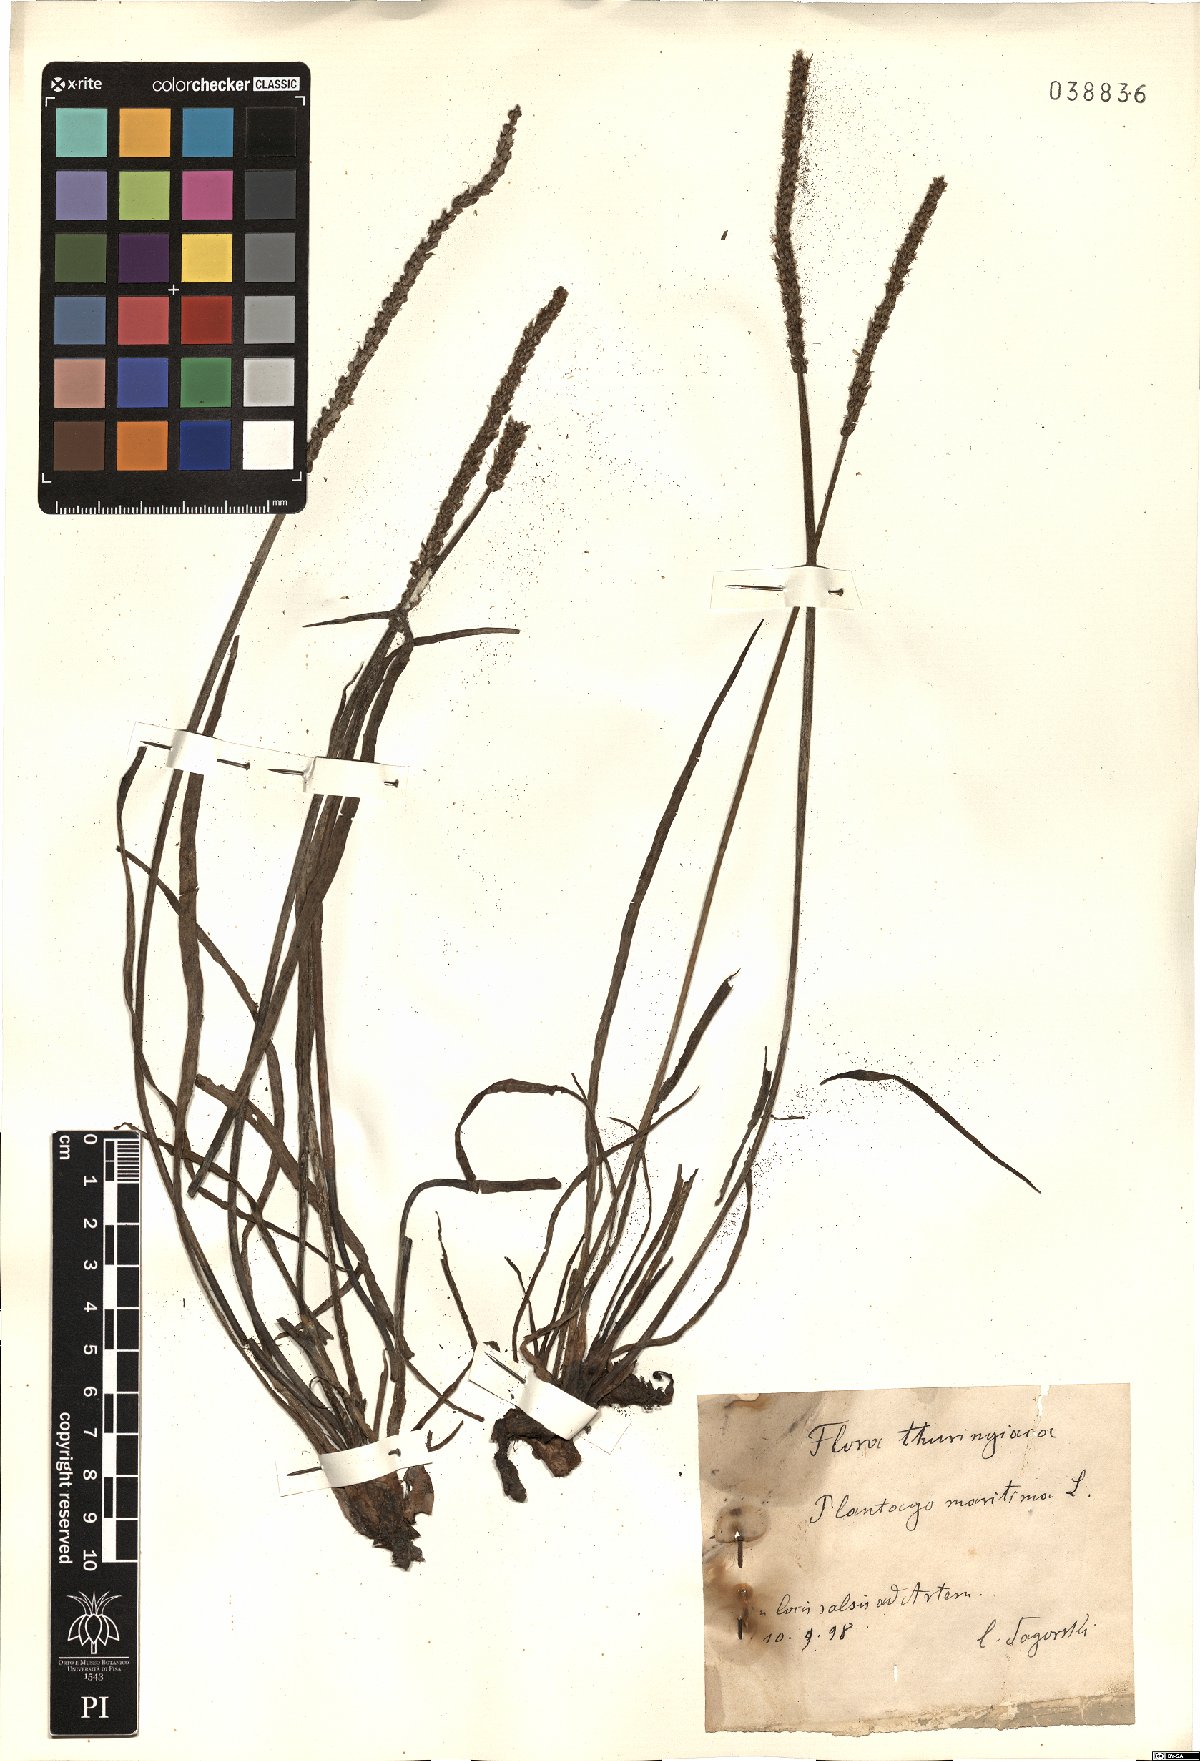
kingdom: Plantae
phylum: Tracheophyta
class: Magnoliopsida
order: Lamiales
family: Plantaginaceae
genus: Plantago
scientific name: Plantago maritima
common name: Sea plantain
